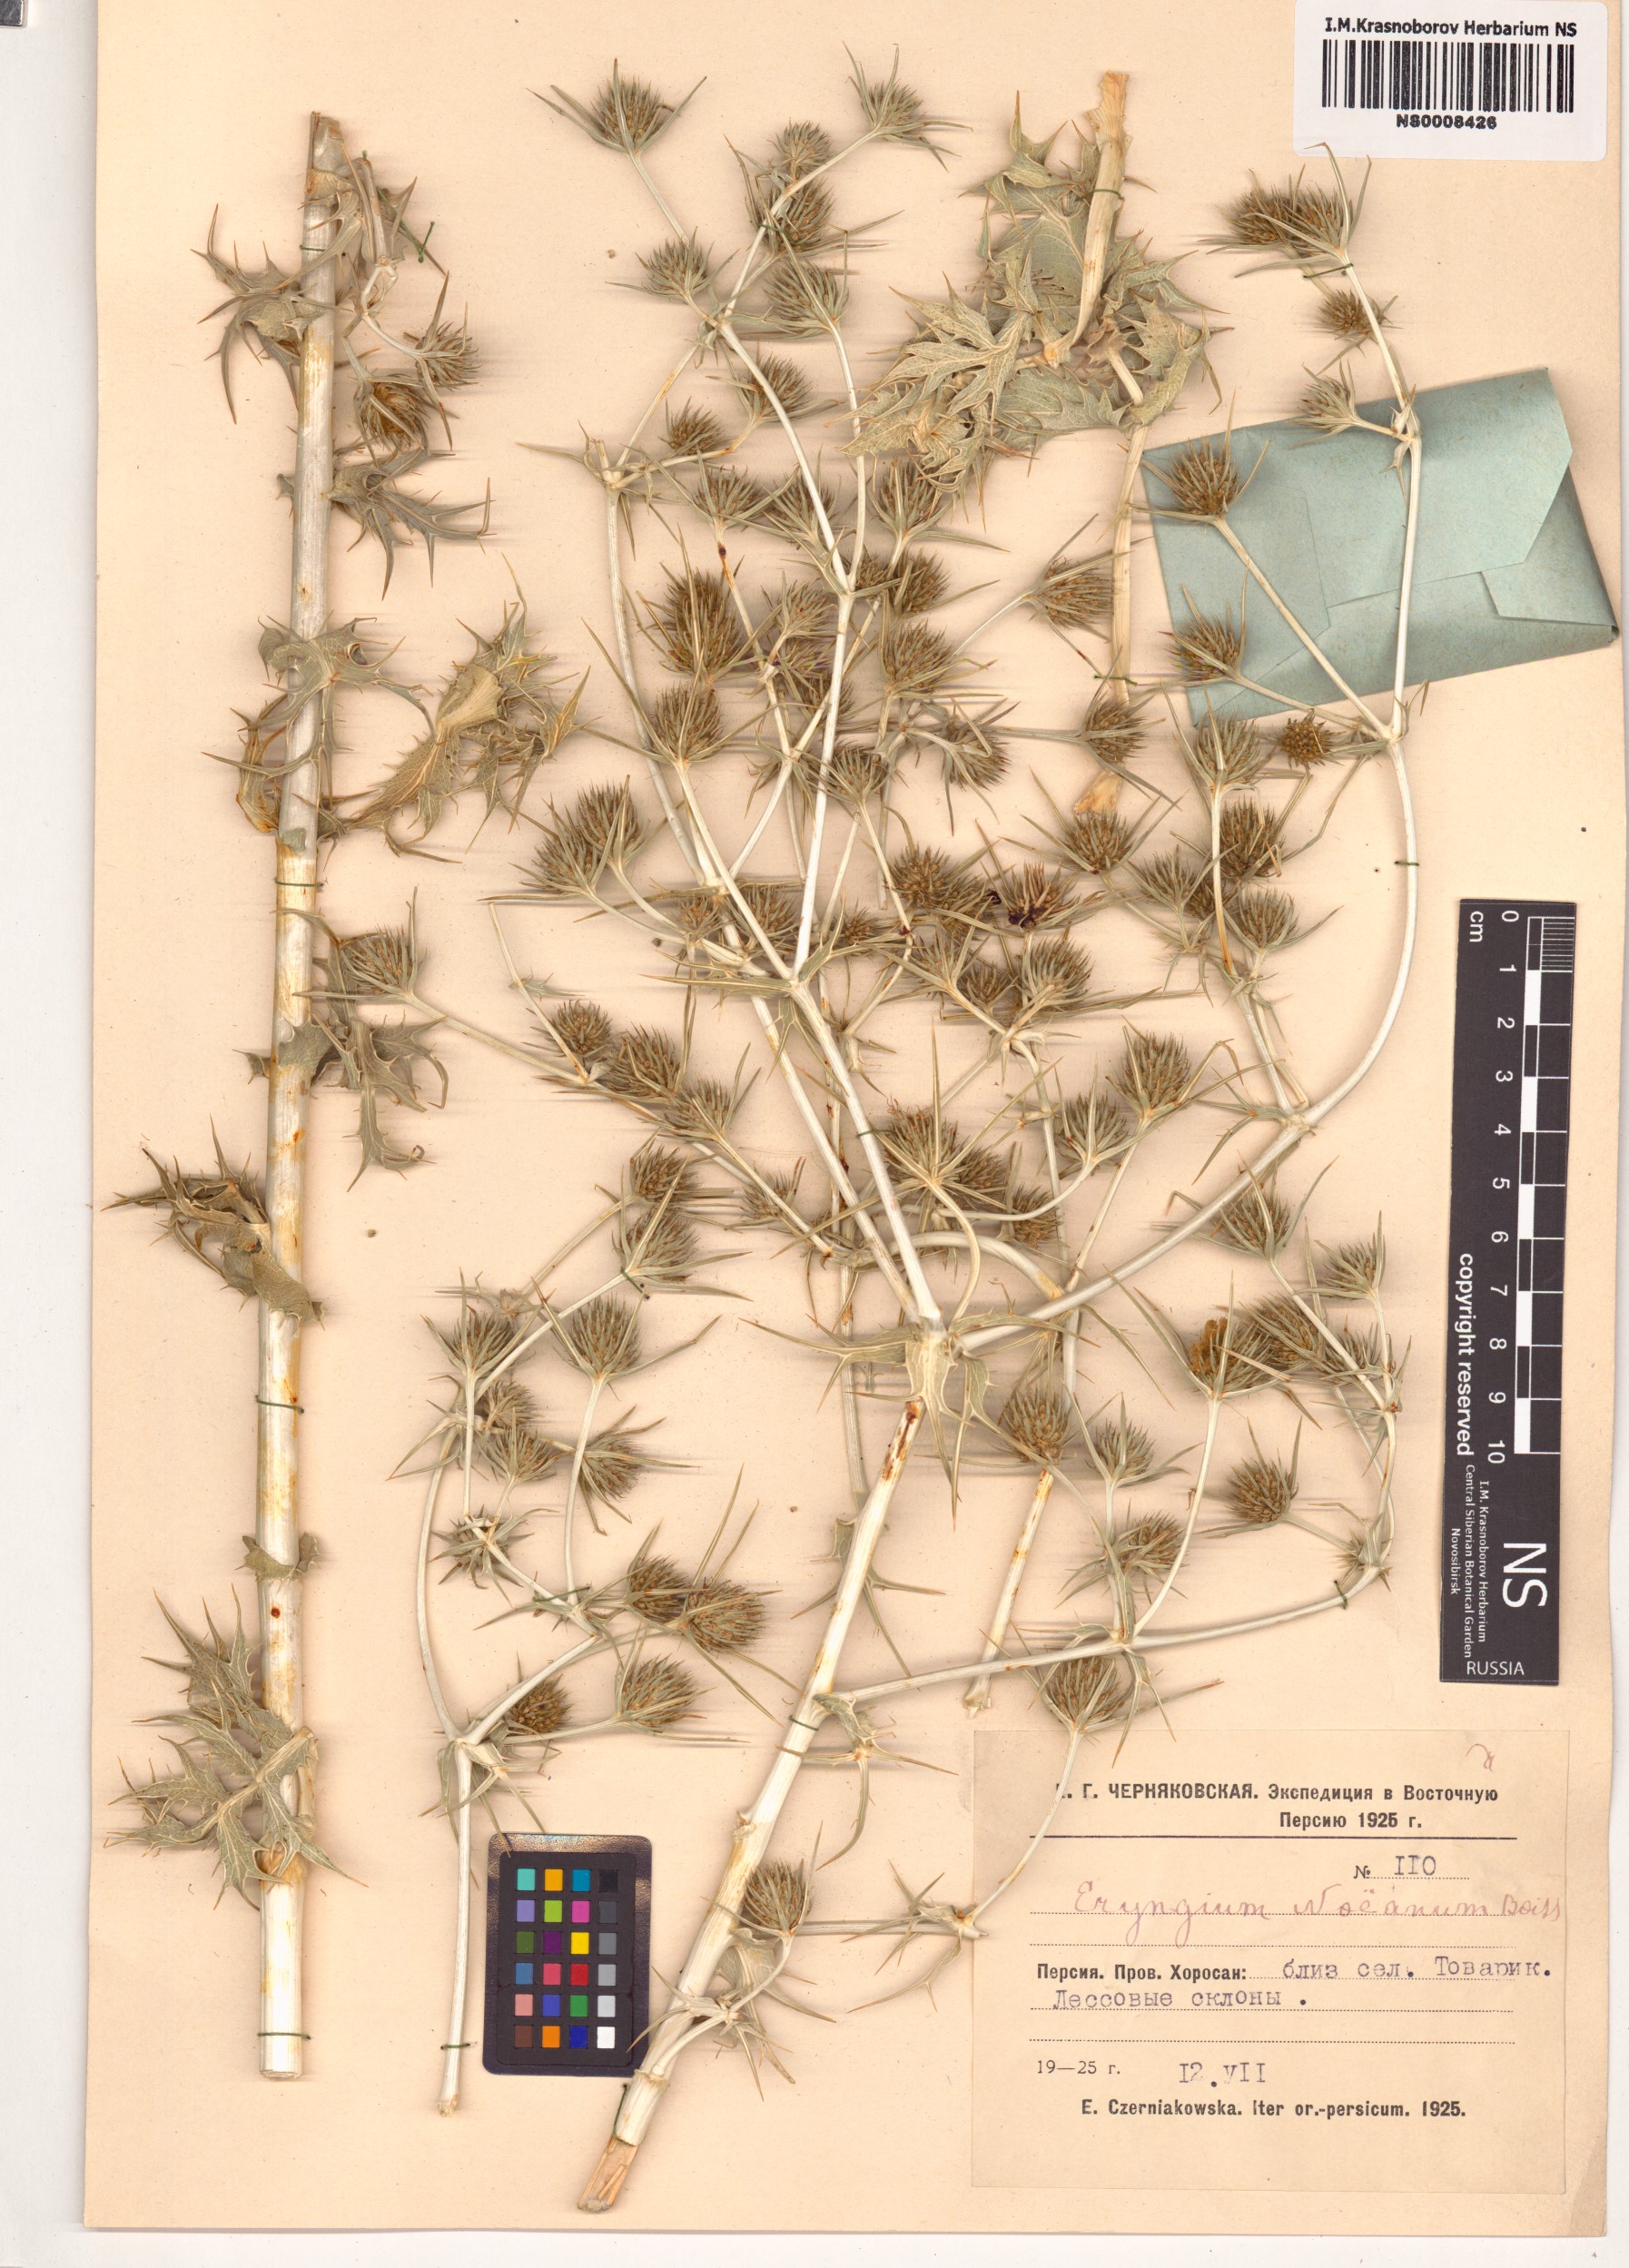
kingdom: Plantae
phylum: Tracheophyta
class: Magnoliopsida
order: Apiales
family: Apiaceae
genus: Eryngium
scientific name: Eryngium billardierei
